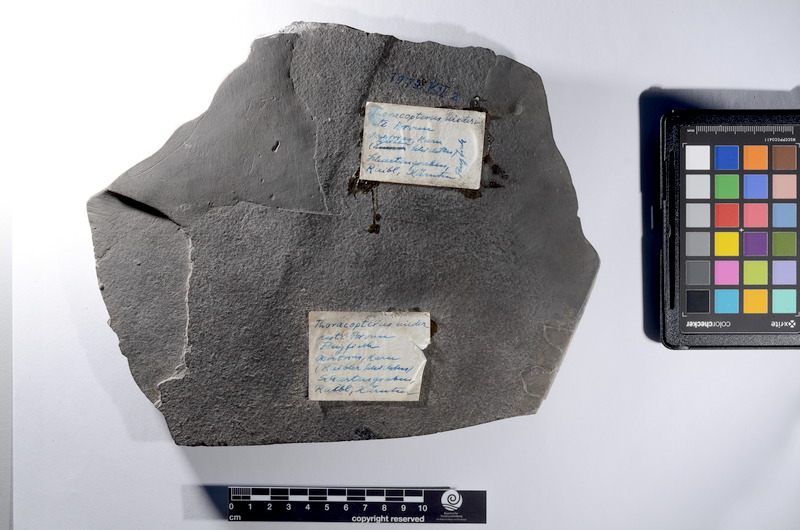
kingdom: Animalia
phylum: Chordata
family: Thoracopteridae
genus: Thoracopterus
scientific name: Thoracopterus niederristi
